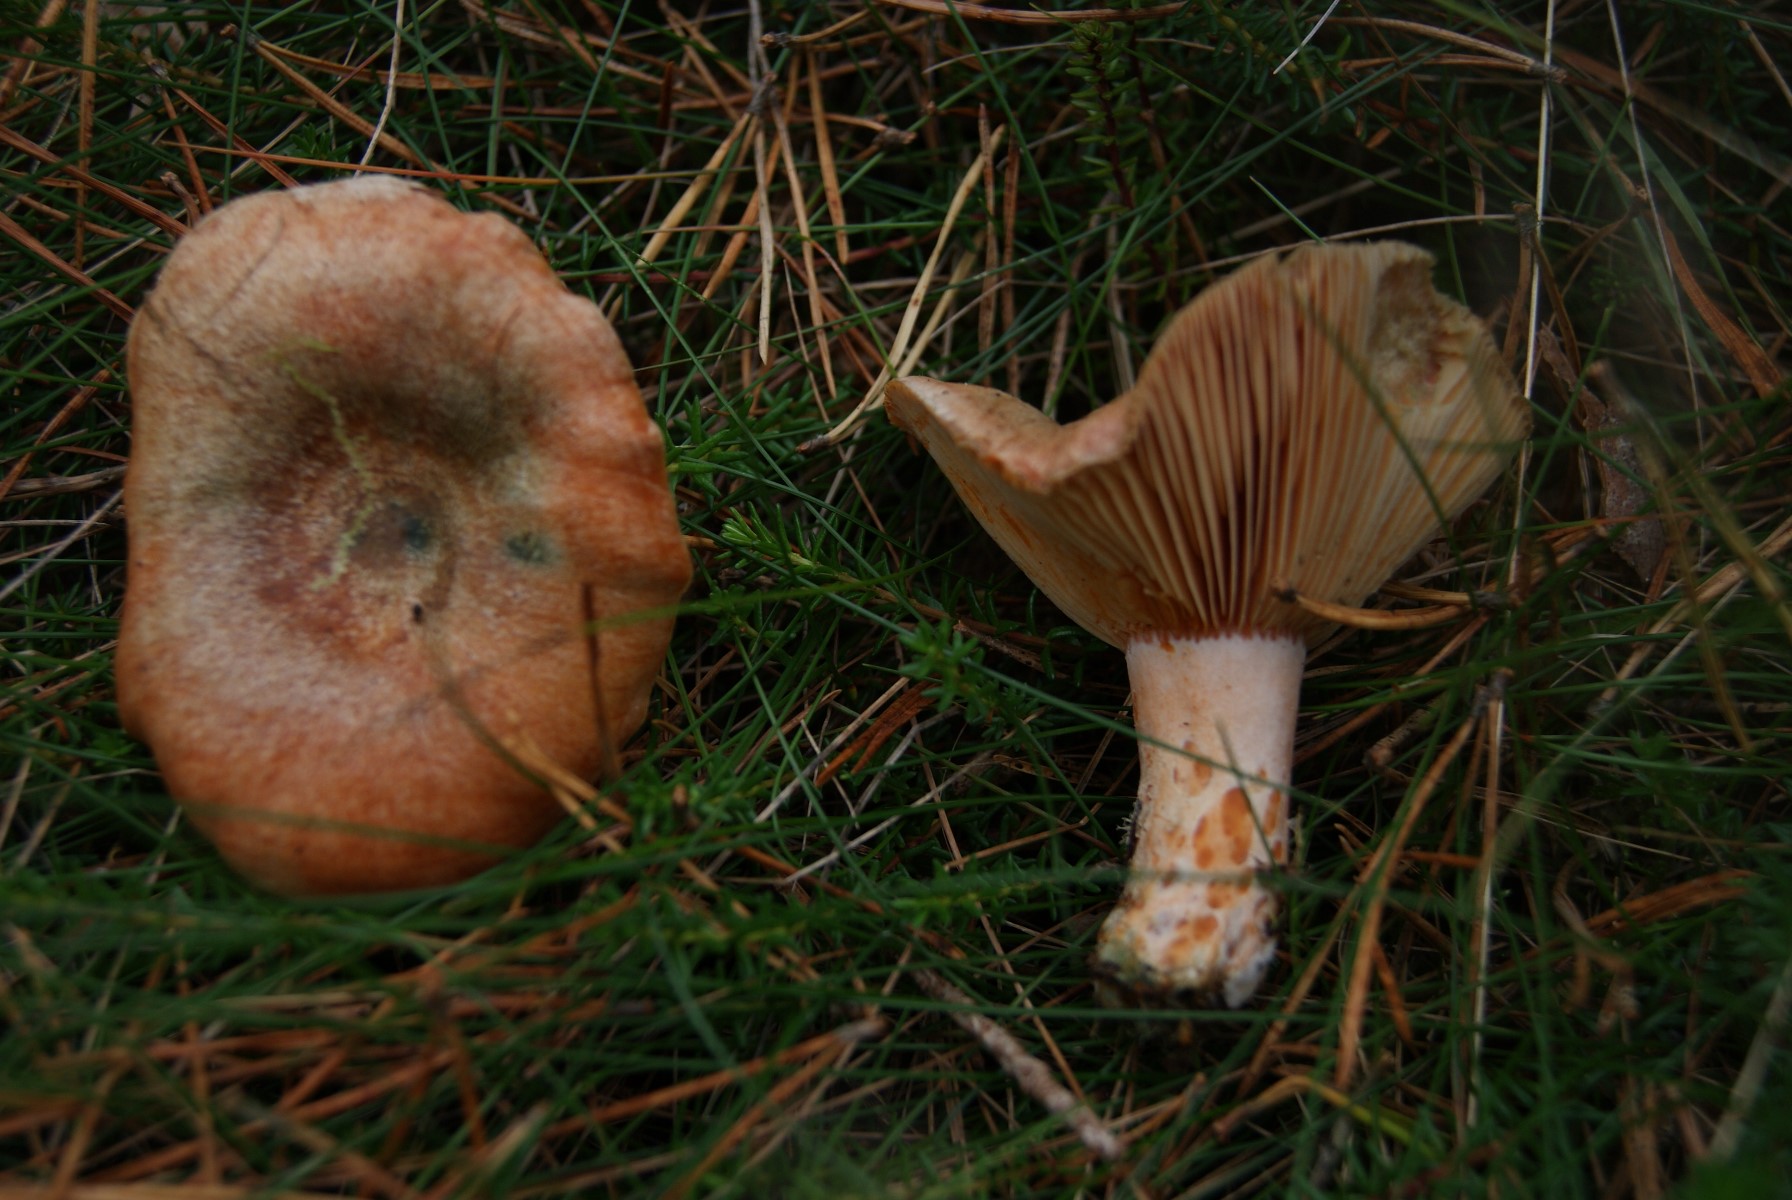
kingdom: Fungi
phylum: Basidiomycota
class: Agaricomycetes
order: Russulales
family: Russulaceae
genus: Lactarius
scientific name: Lactarius deliciosus
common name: velsmagende mælkehat
